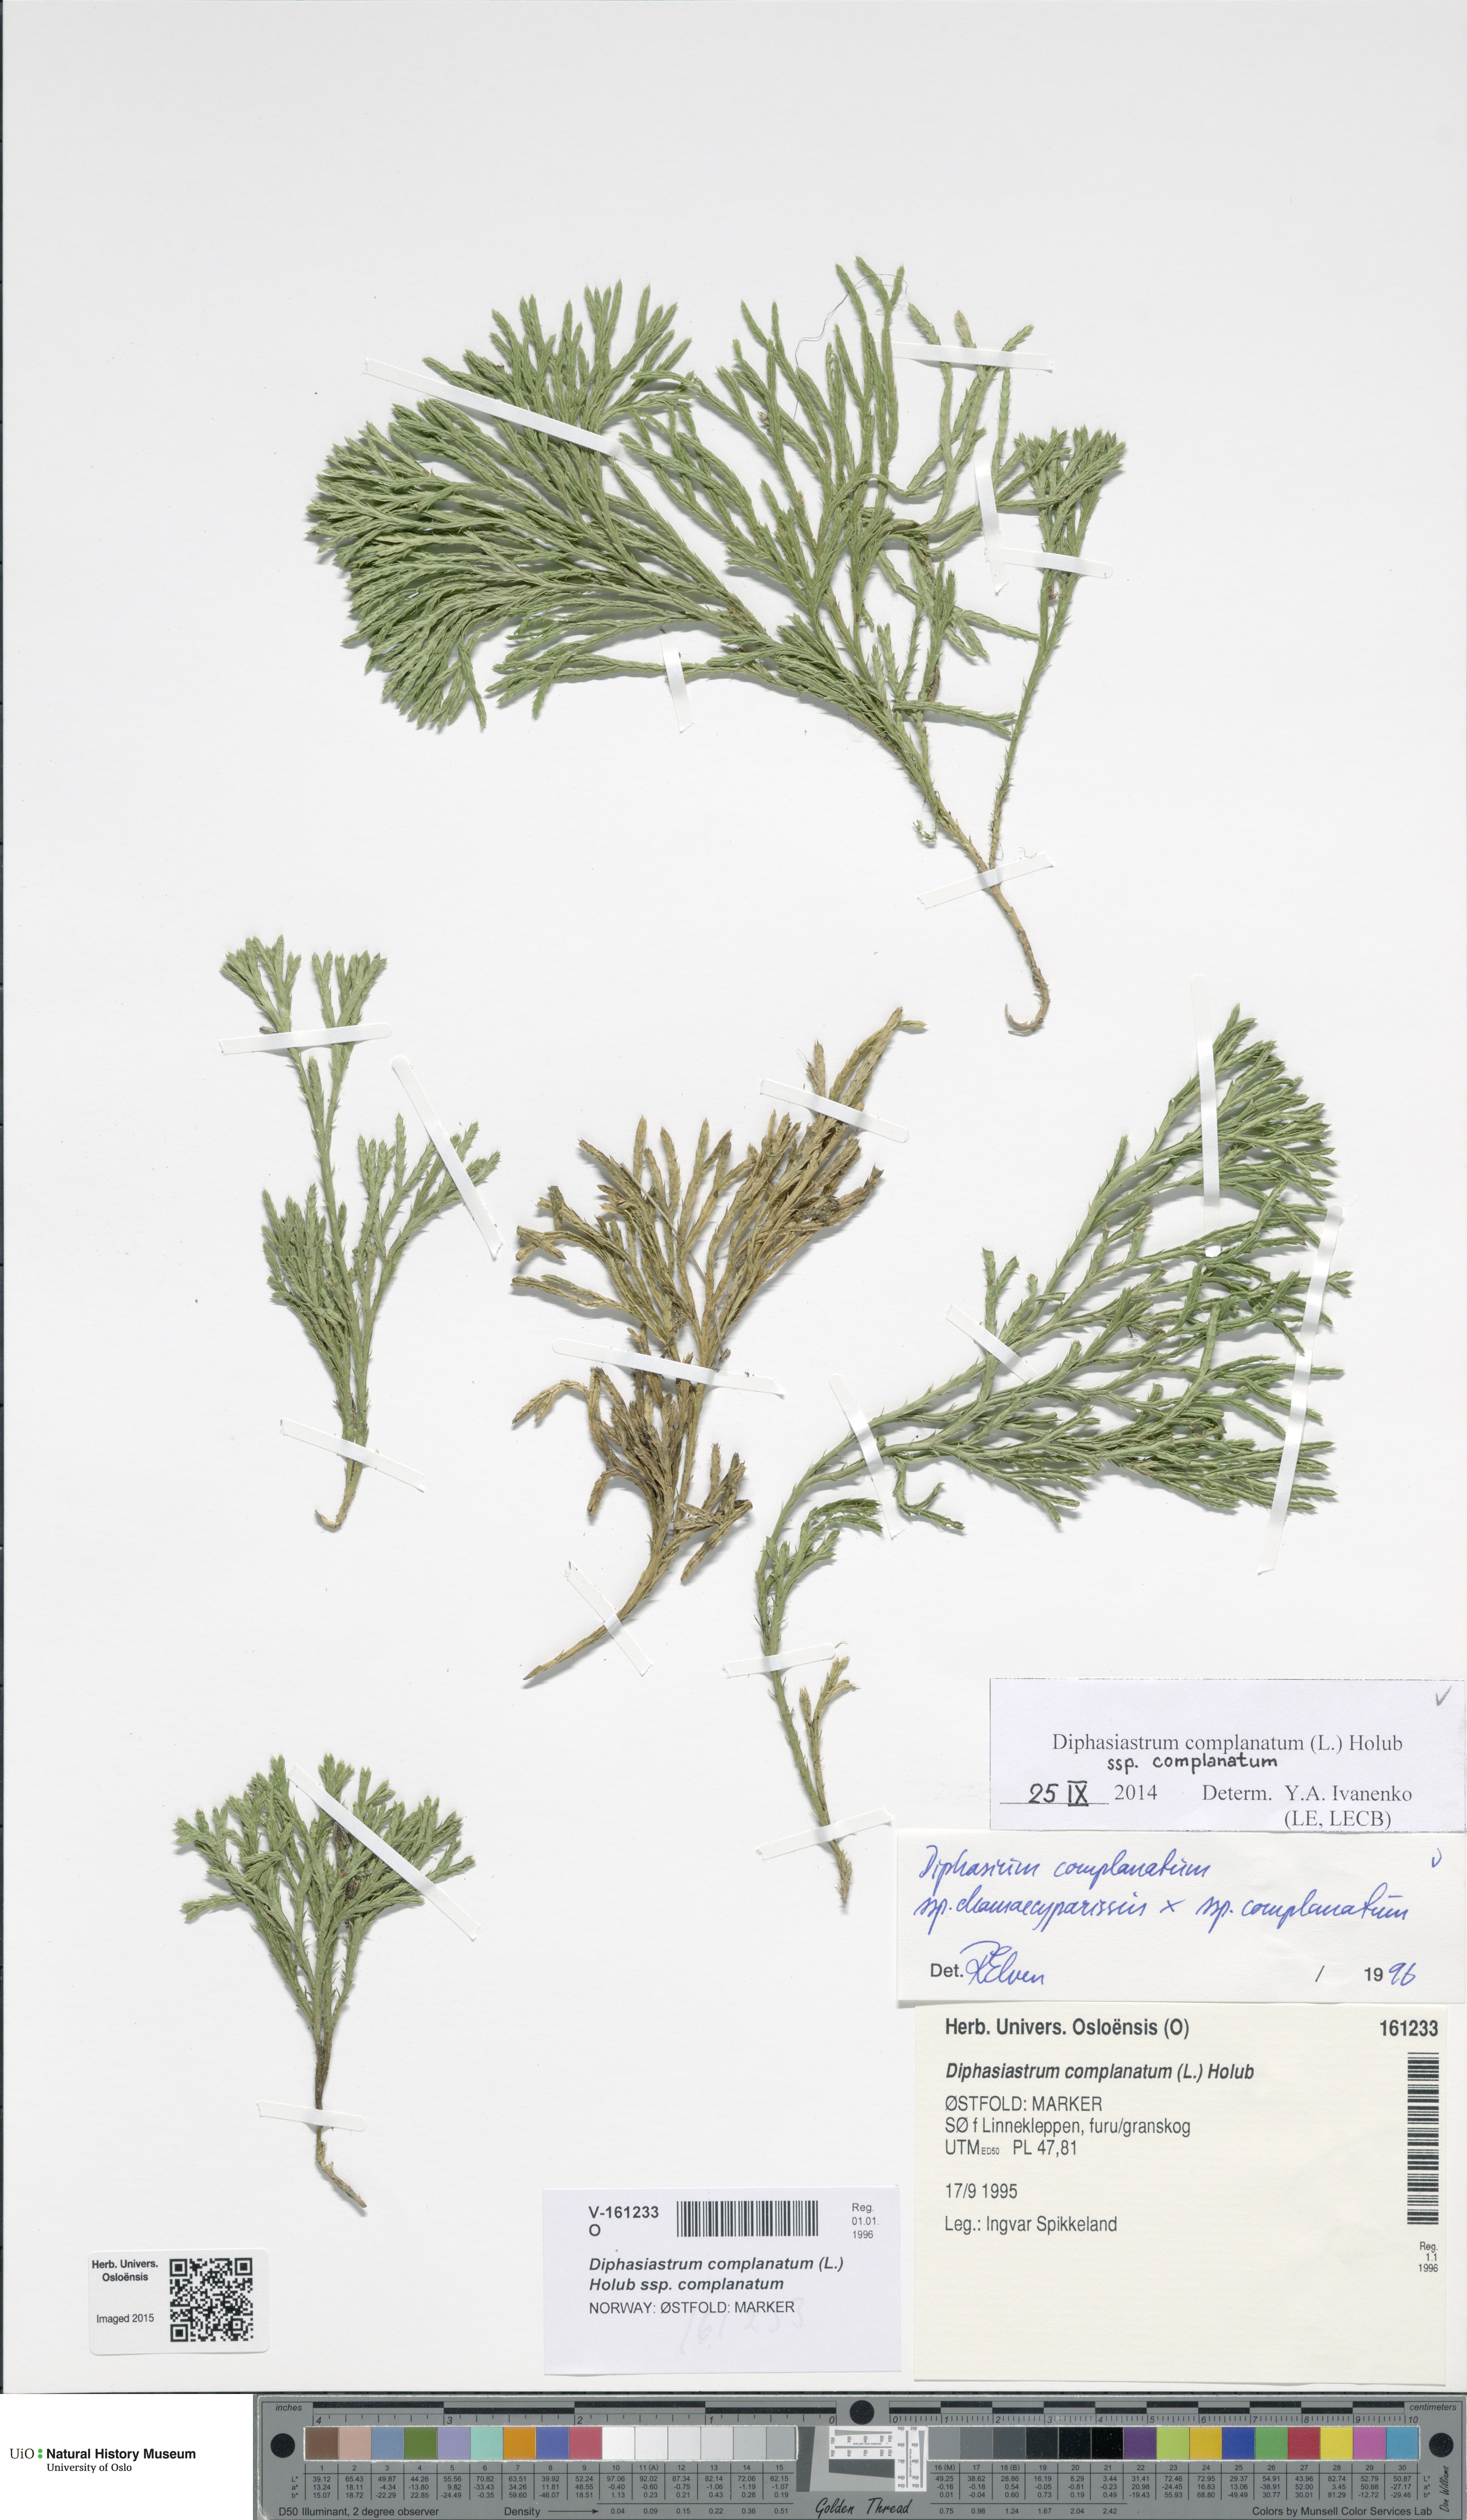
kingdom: Plantae
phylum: Tracheophyta
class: Lycopodiopsida
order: Lycopodiales
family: Lycopodiaceae
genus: Diphasiastrum
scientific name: Diphasiastrum complanatum
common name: Northern running-pine
